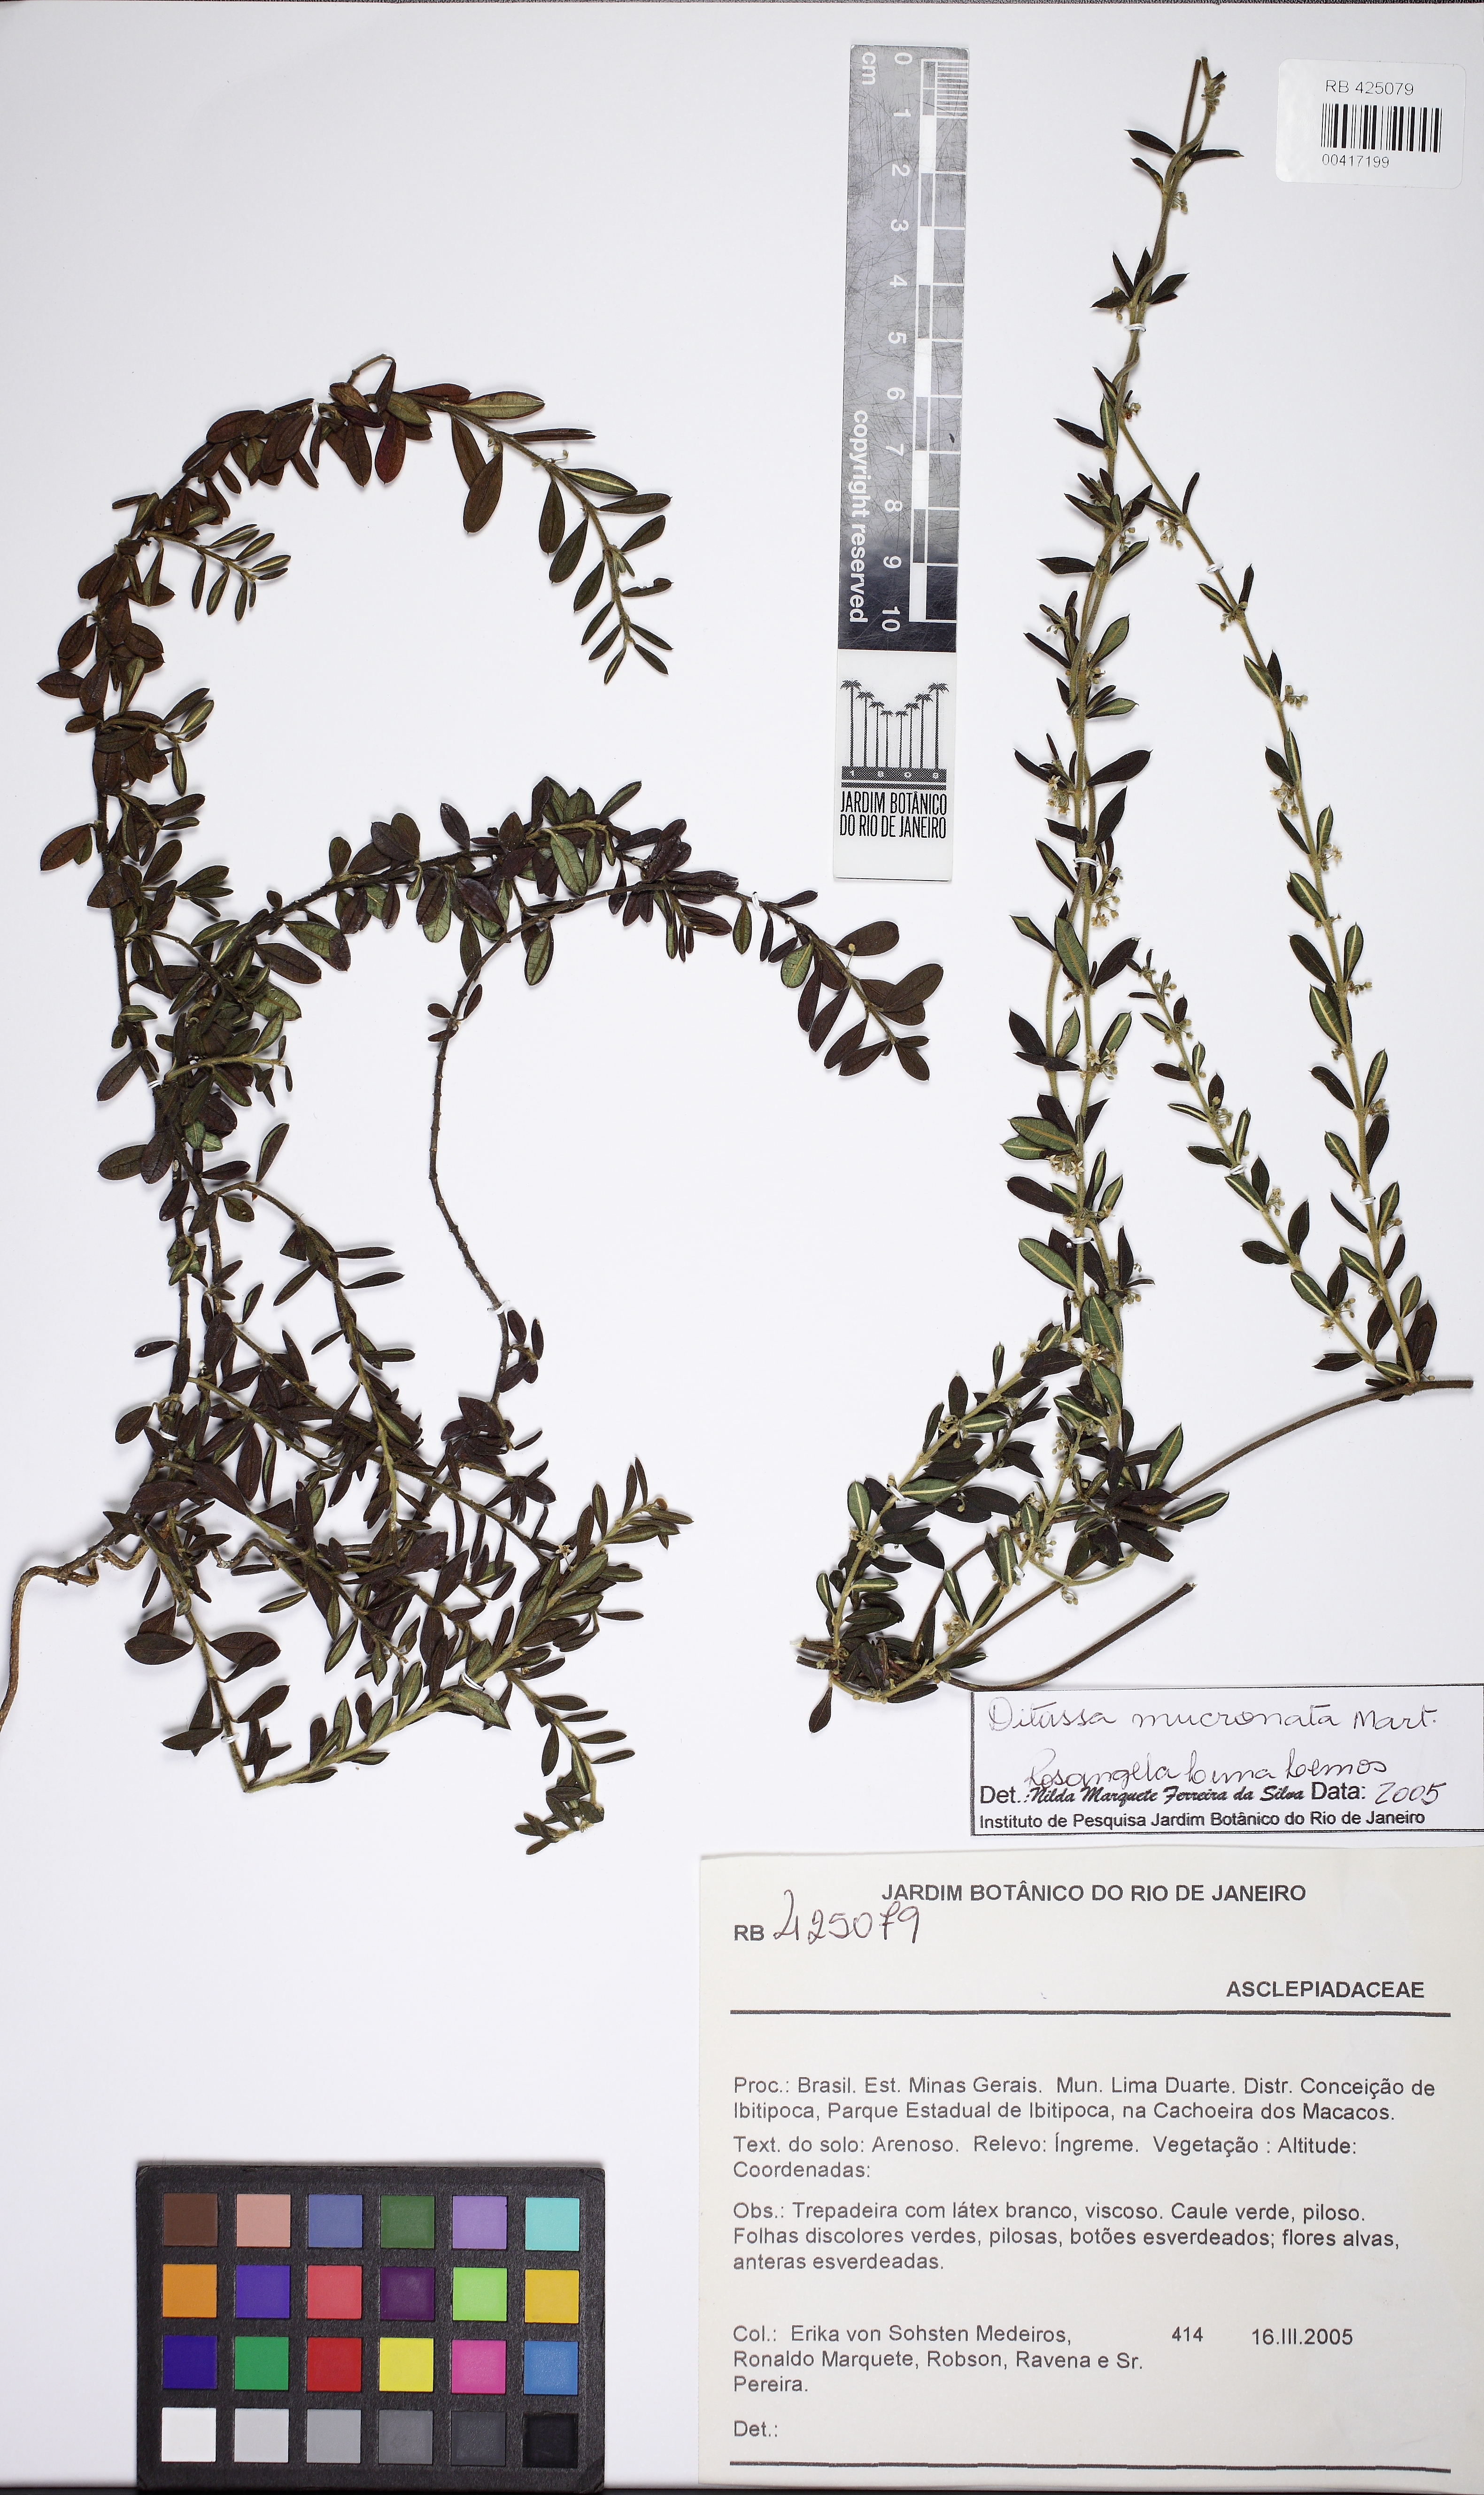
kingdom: Plantae
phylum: Tracheophyta
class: Magnoliopsida
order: Gentianales
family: Apocynaceae
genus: Ditassa
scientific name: Ditassa mucronata
